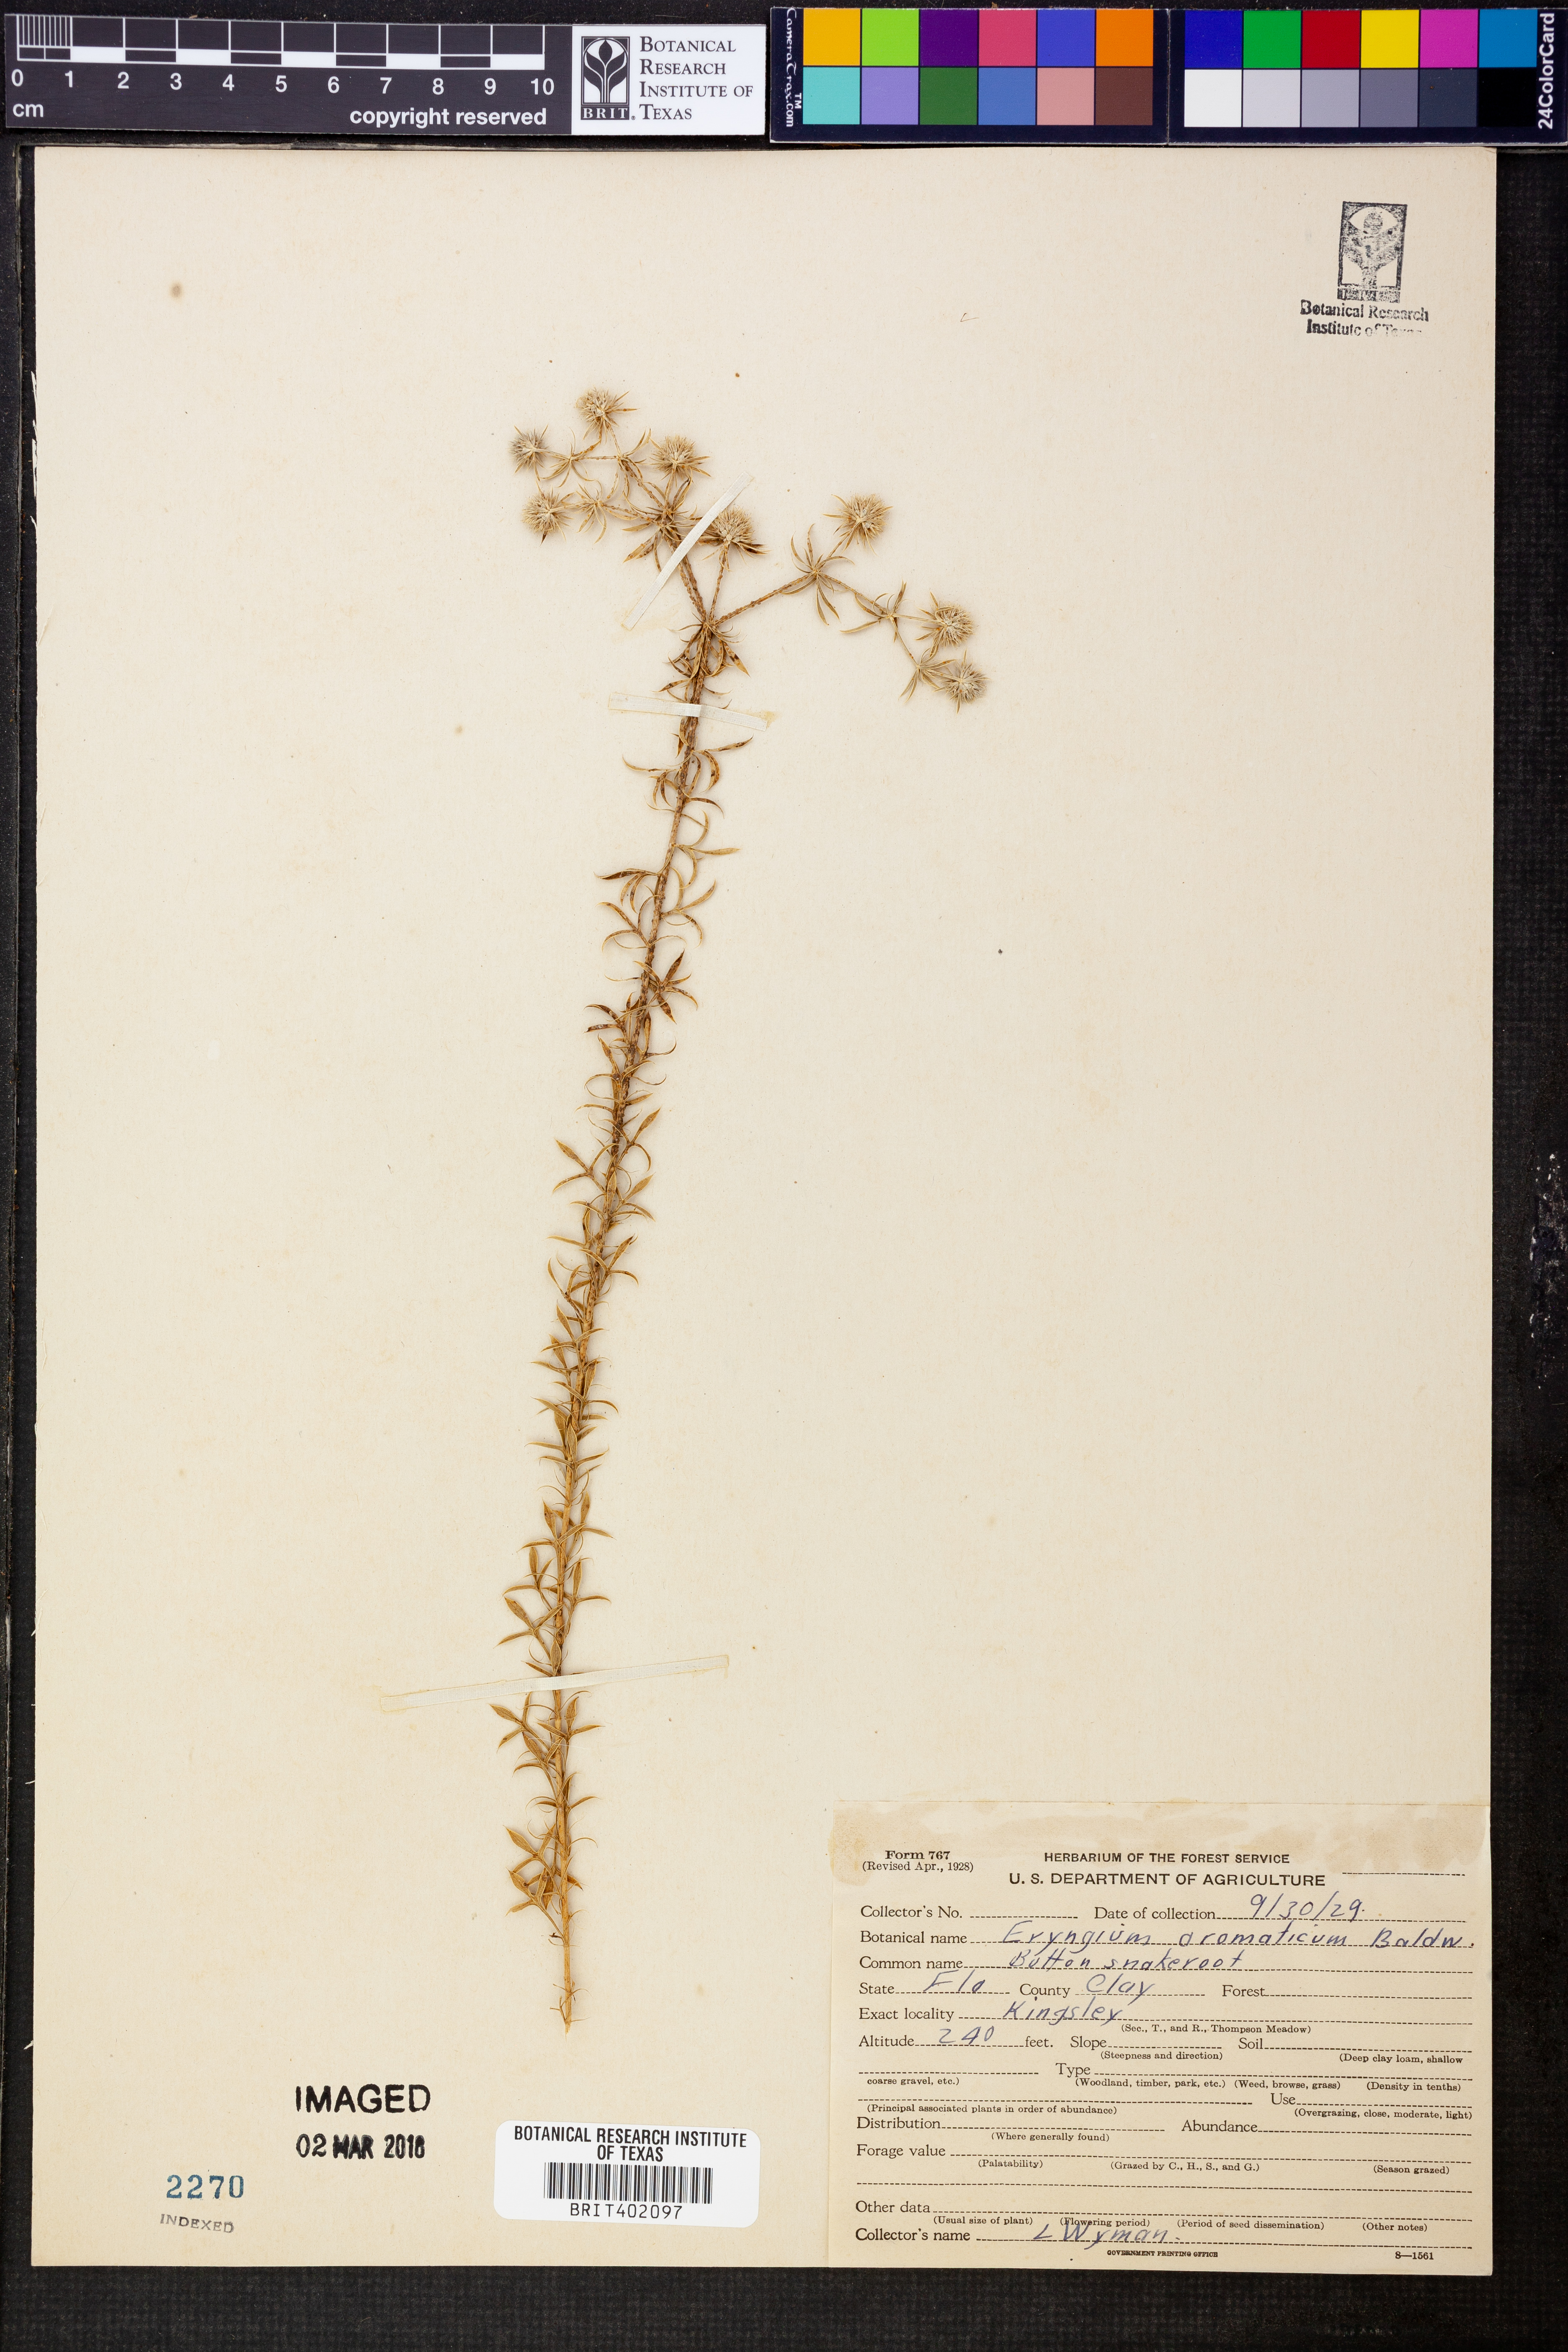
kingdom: Plantae
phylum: Tracheophyta
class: Magnoliopsida
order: Apiales
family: Apiaceae
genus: Eryngium
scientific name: Eryngium aromaticum
